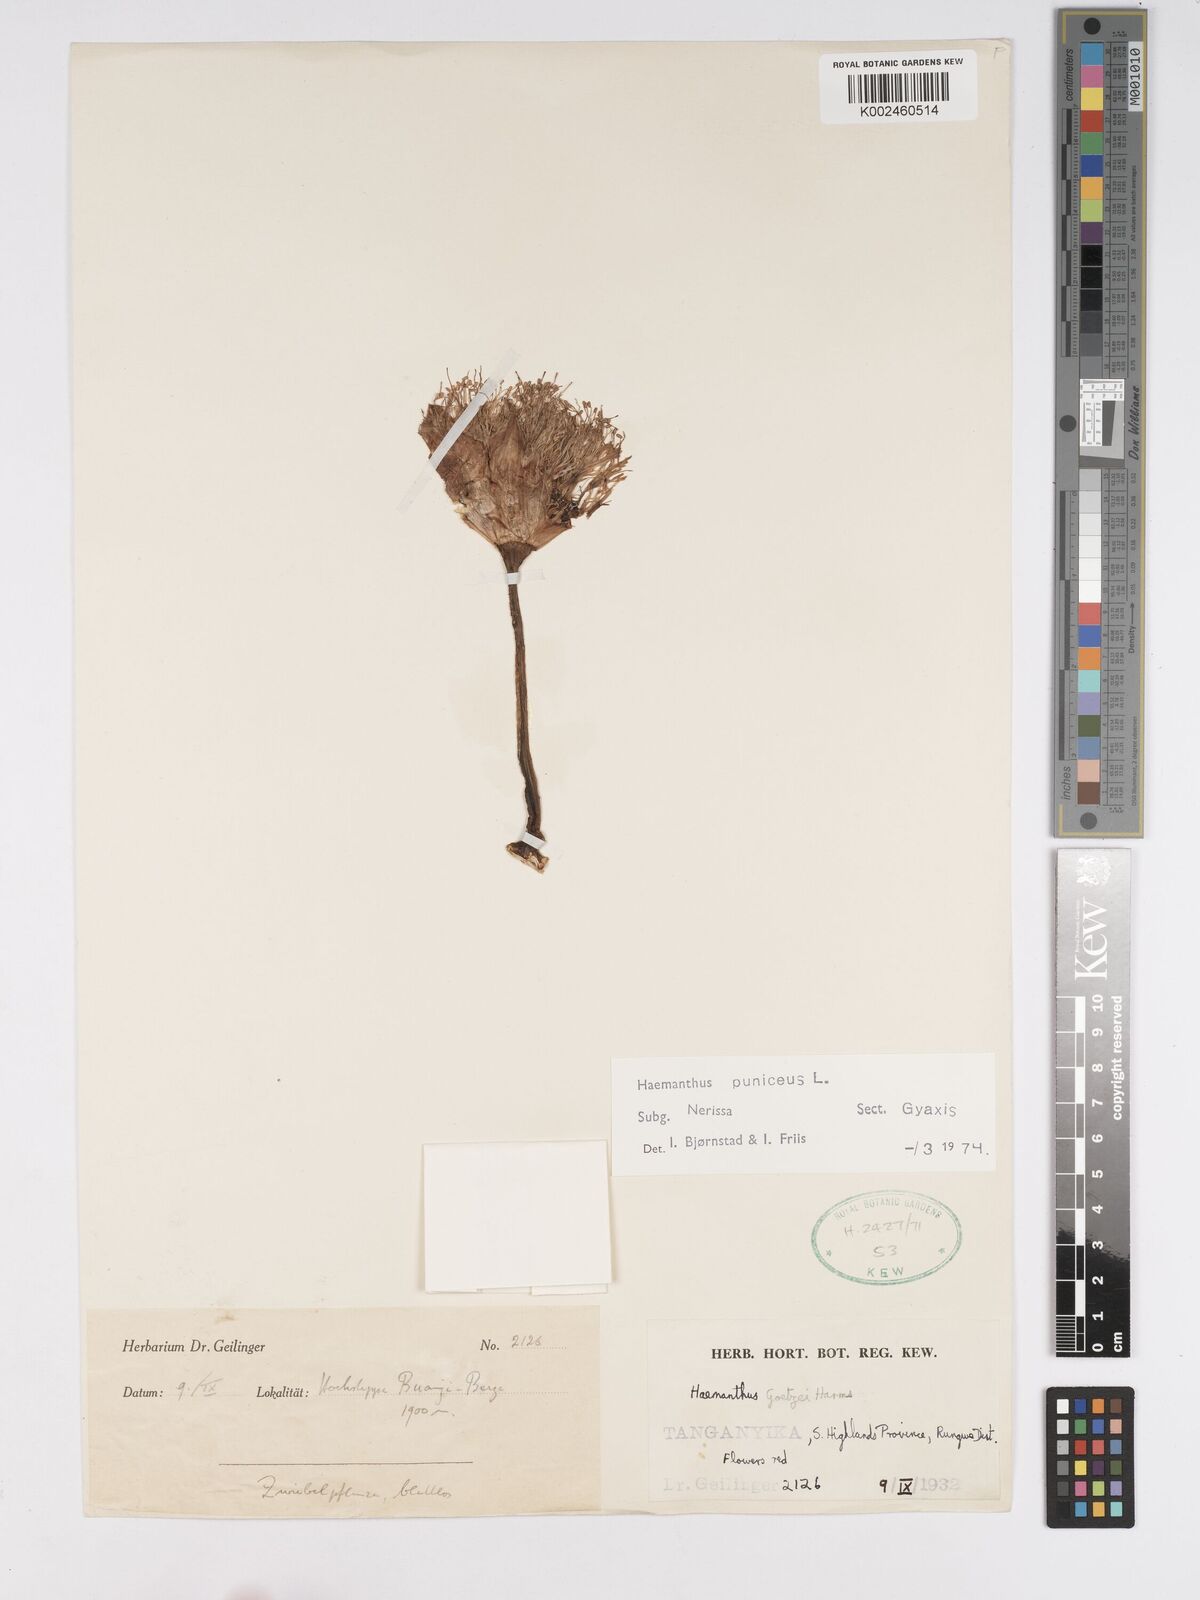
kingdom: Plantae
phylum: Tracheophyta
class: Liliopsida
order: Asparagales
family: Amaryllidaceae
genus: Scadoxus
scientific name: Scadoxus puniceus
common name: Royal-paintbrush
